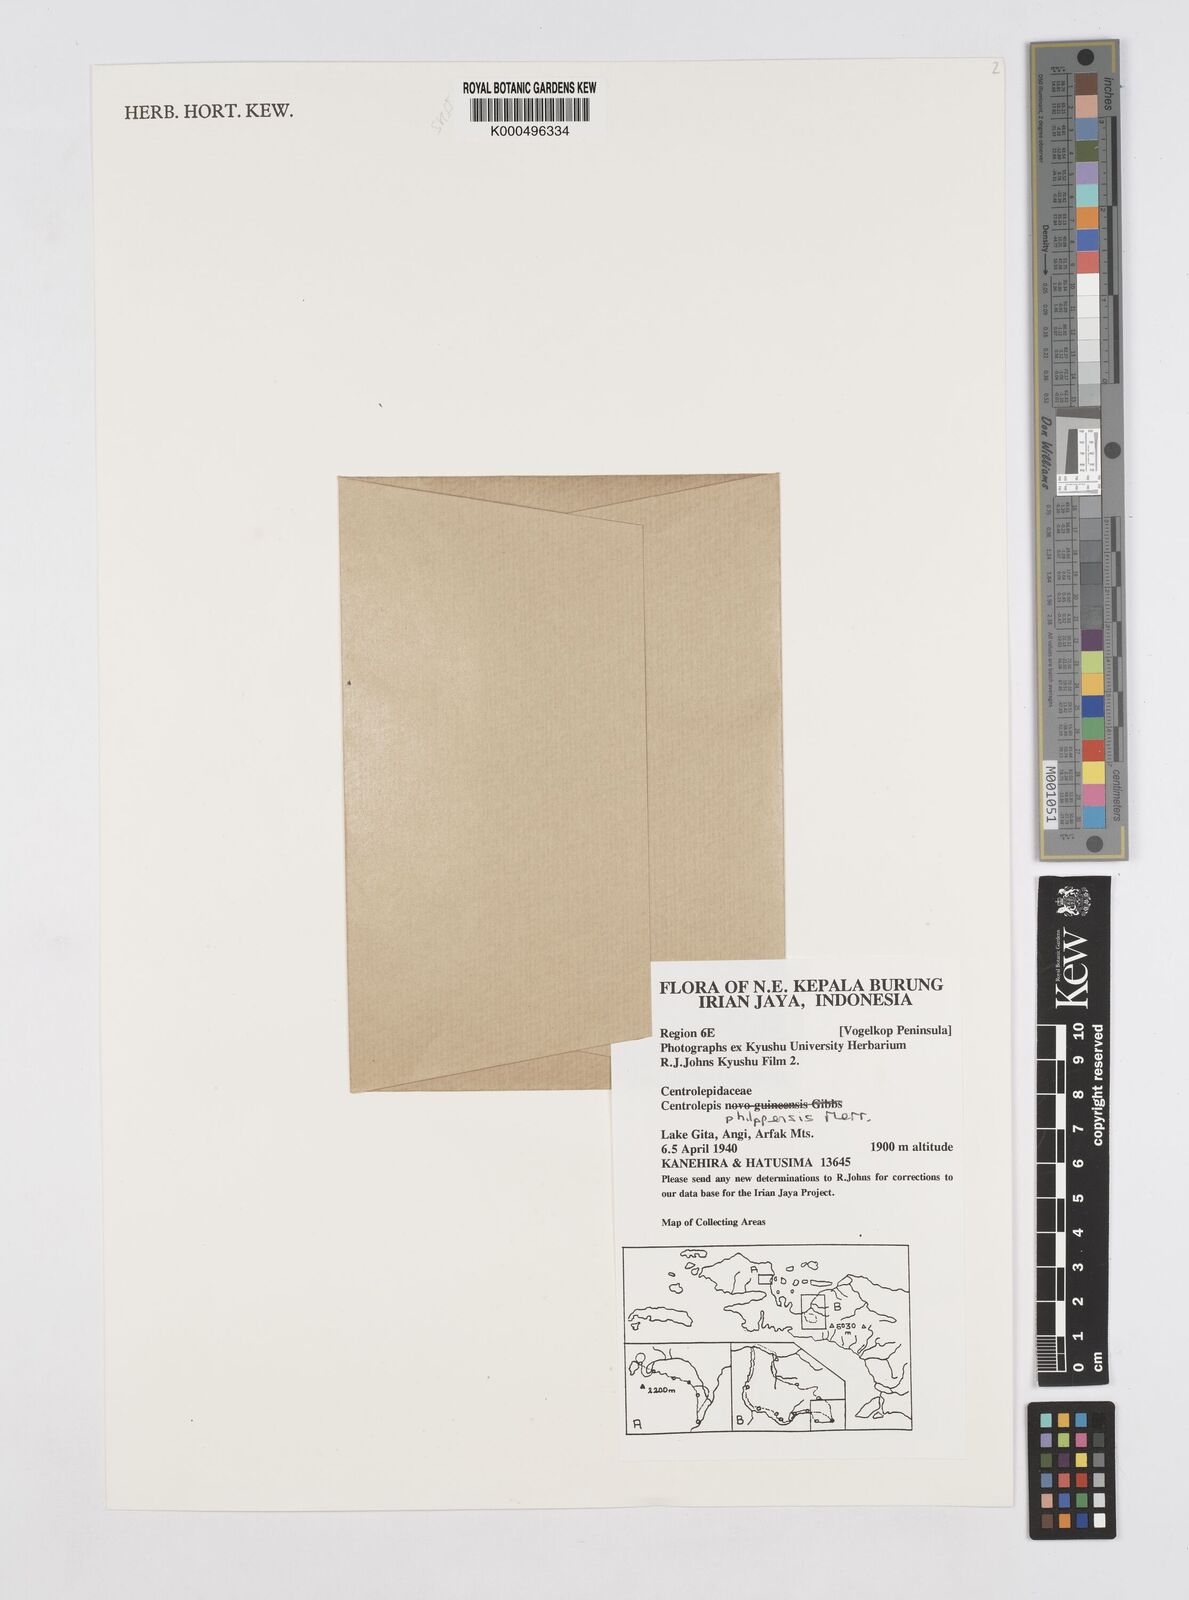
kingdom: Plantae
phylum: Tracheophyta
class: Liliopsida
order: Poales
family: Restionaceae
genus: Centrolepis
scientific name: Centrolepis philippinensis
